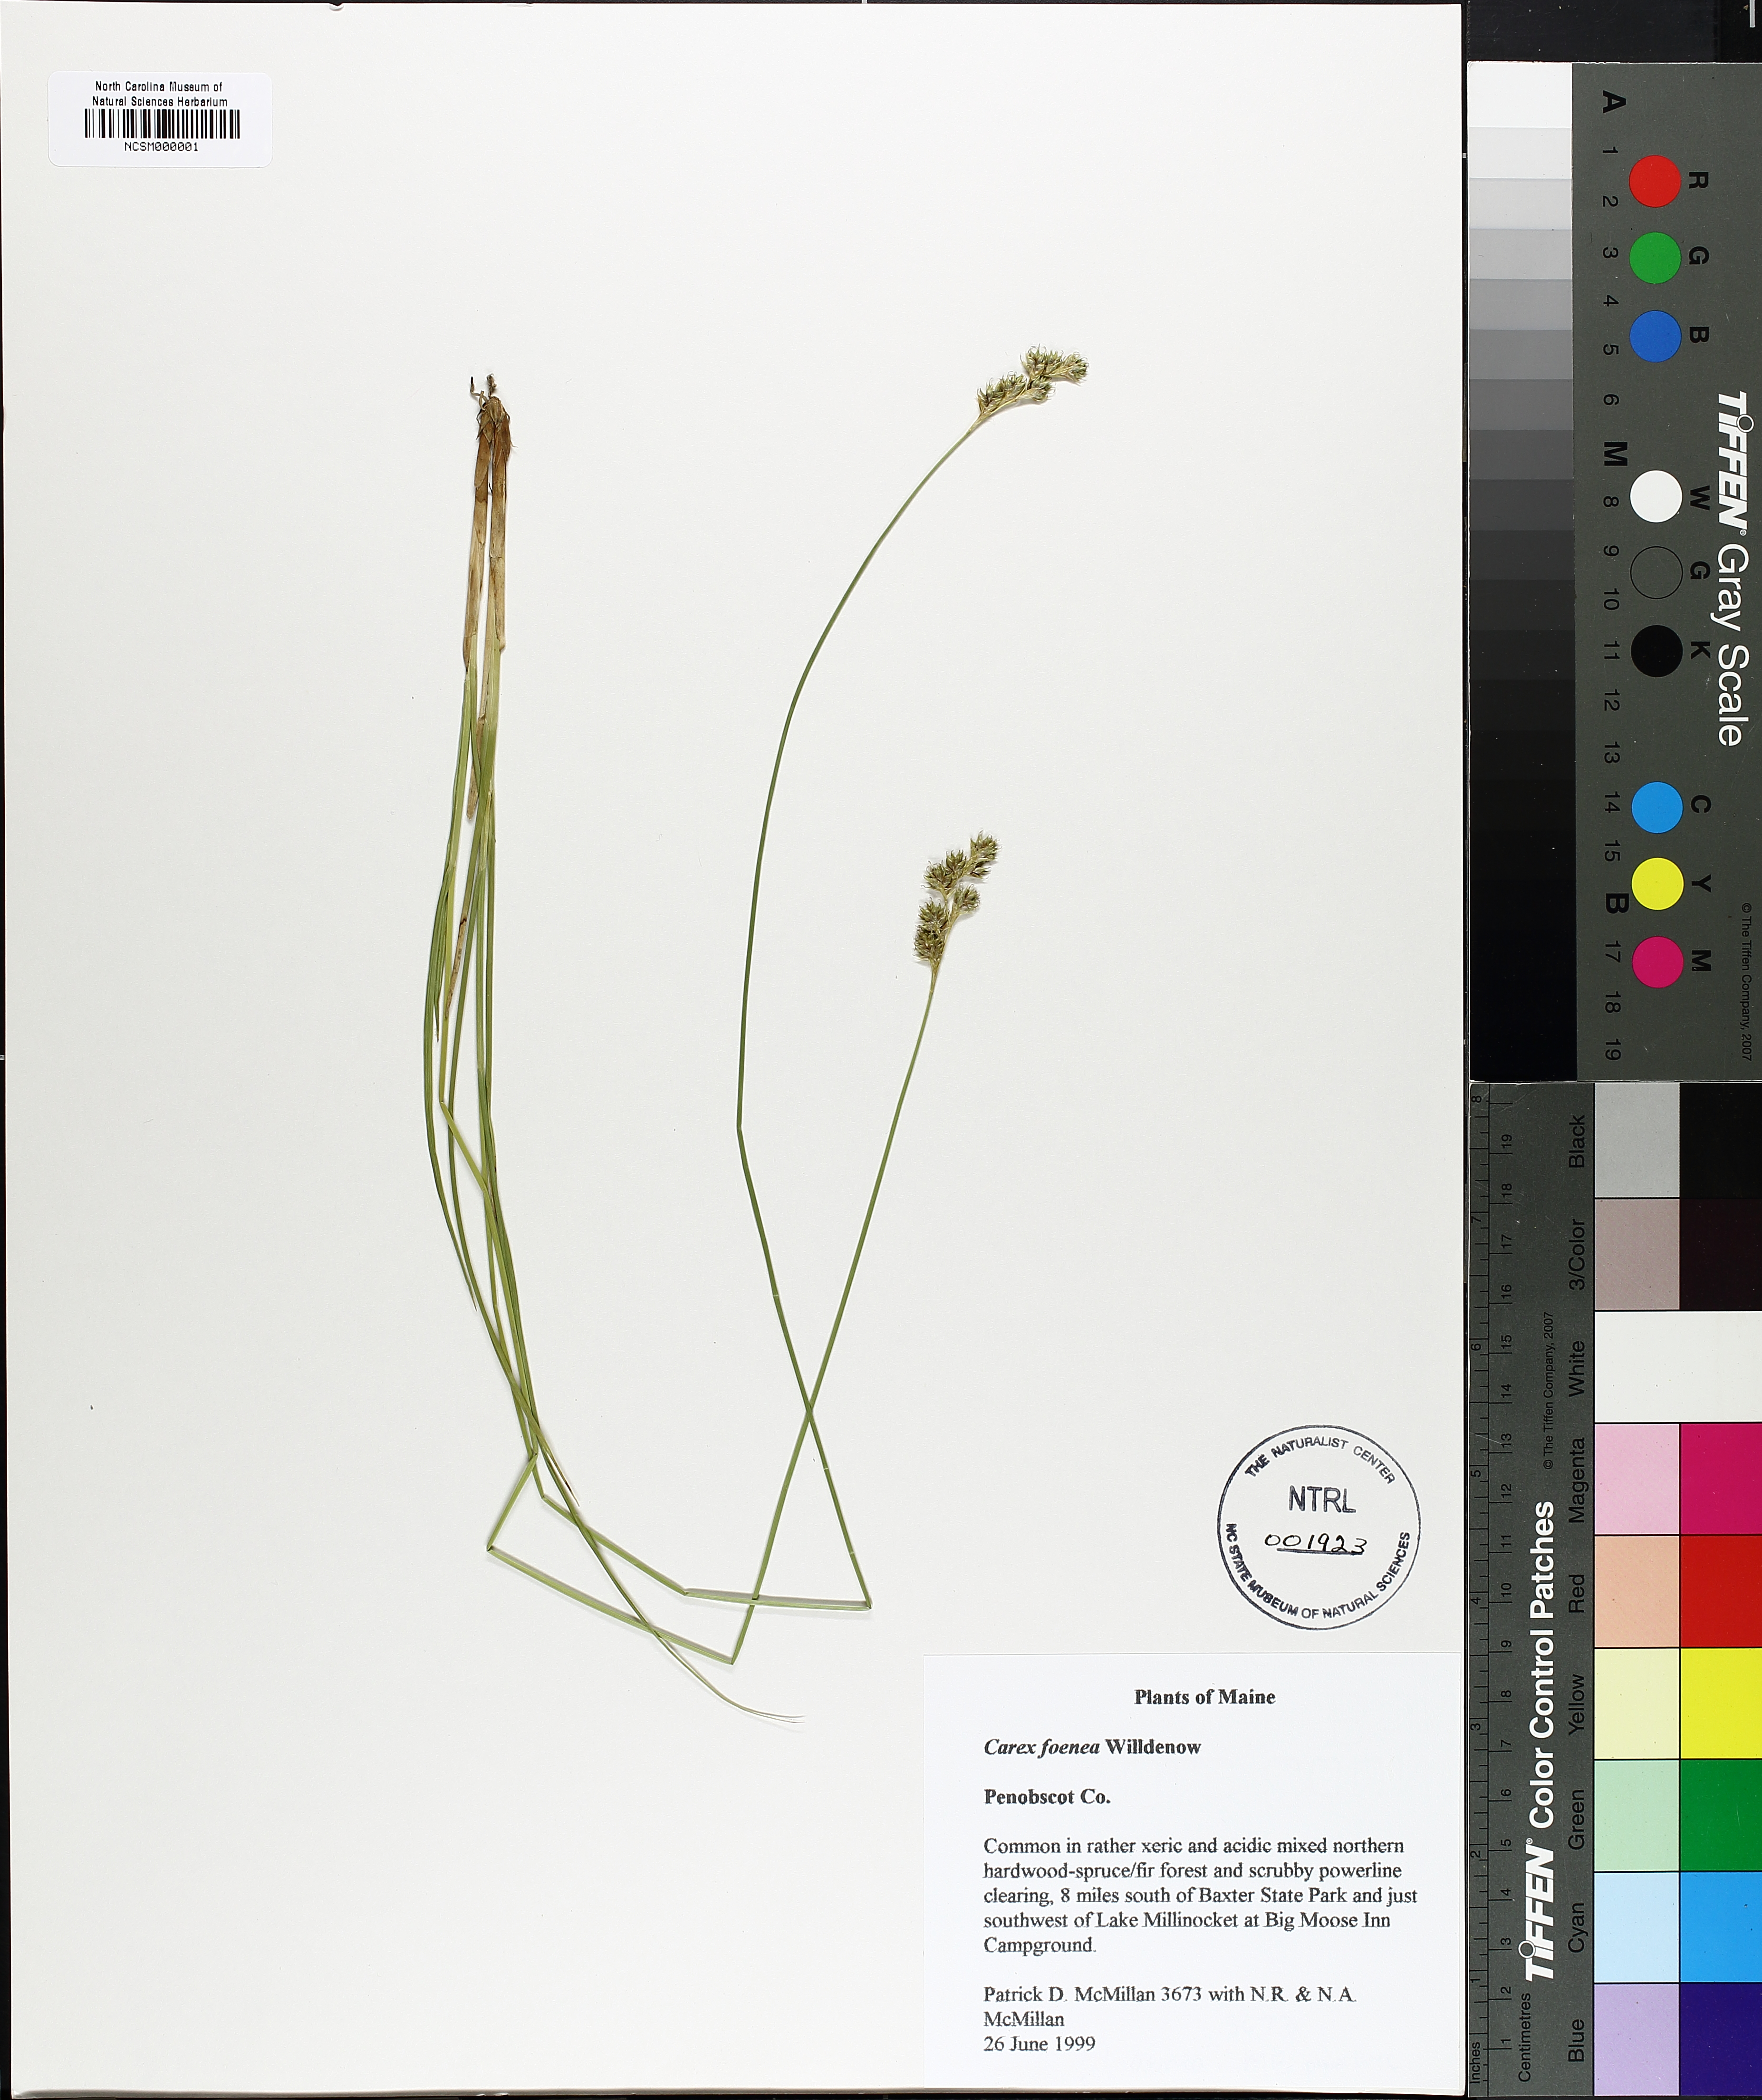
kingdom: Plantae
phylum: Tracheophyta
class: Liliopsida
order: Poales
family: Cyperaceae
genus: Carex
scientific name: Carex foenea
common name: Bronze sedge
